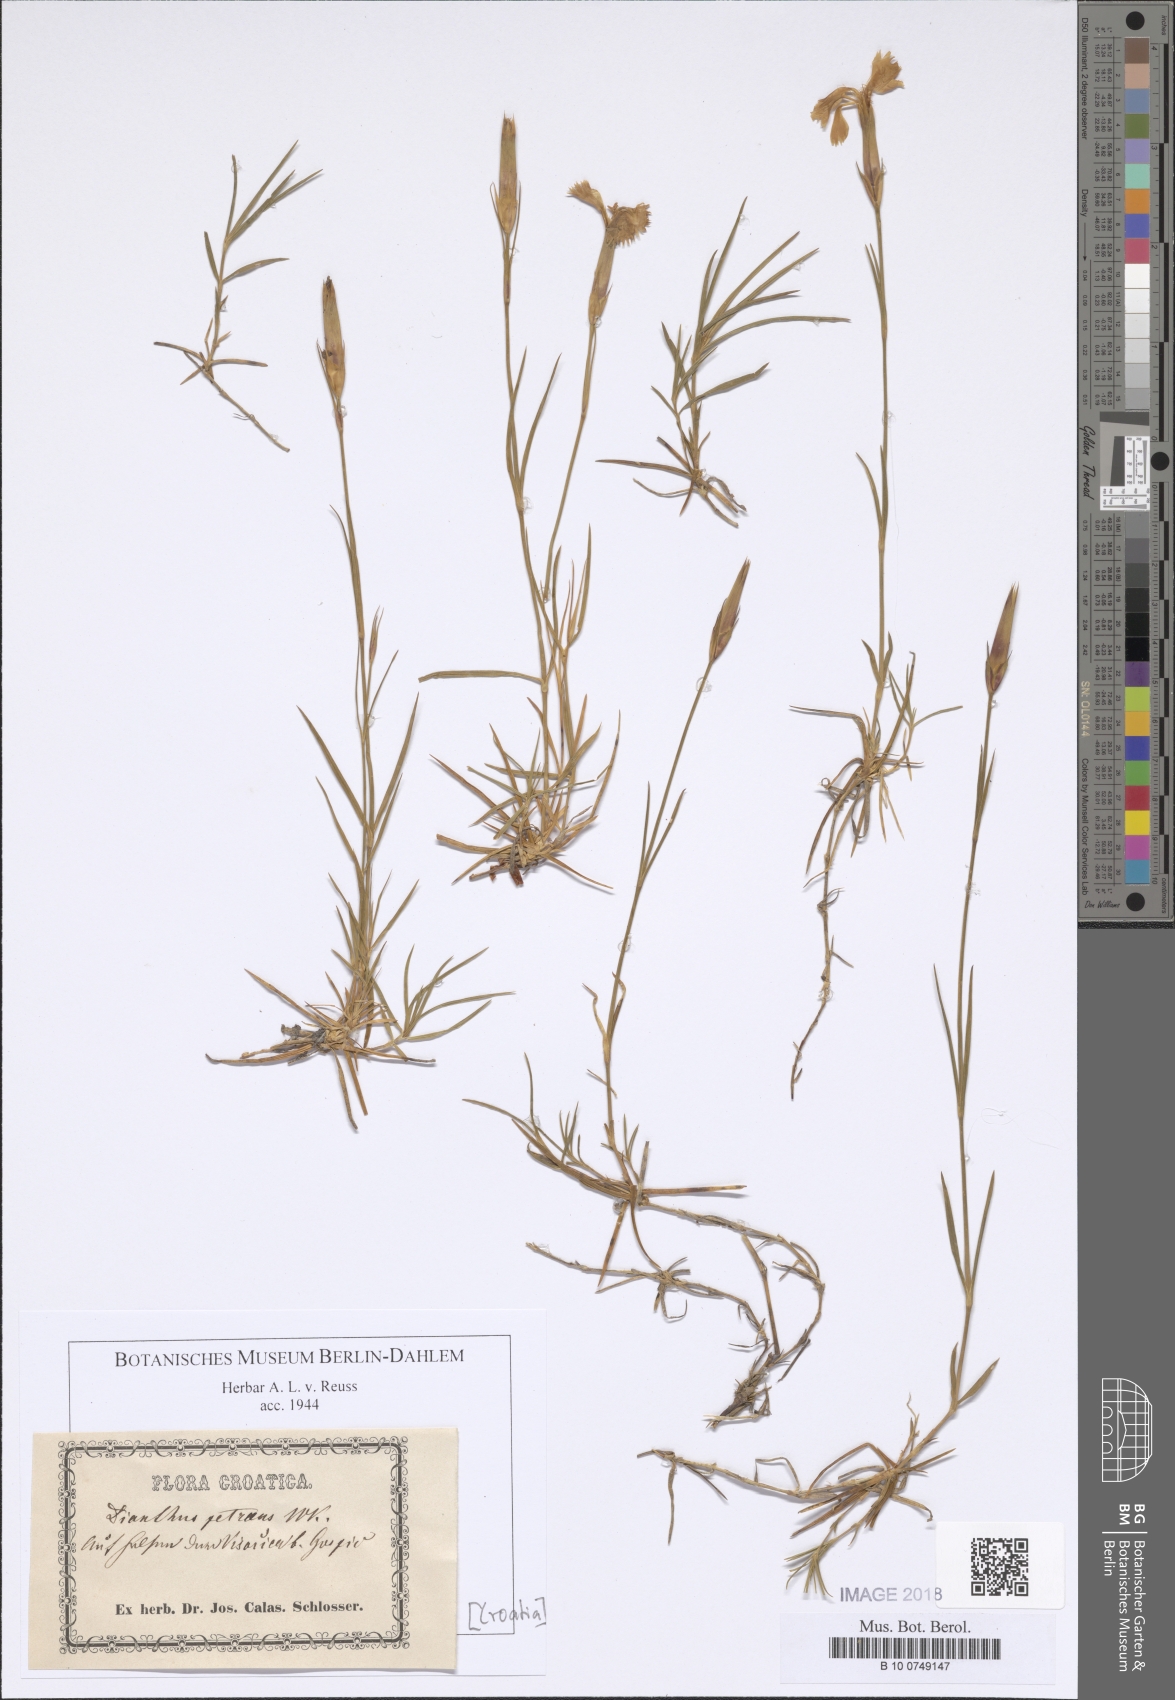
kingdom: Plantae
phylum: Tracheophyta
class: Magnoliopsida
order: Caryophyllales
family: Caryophyllaceae
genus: Dianthus
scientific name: Dianthus petraeus
